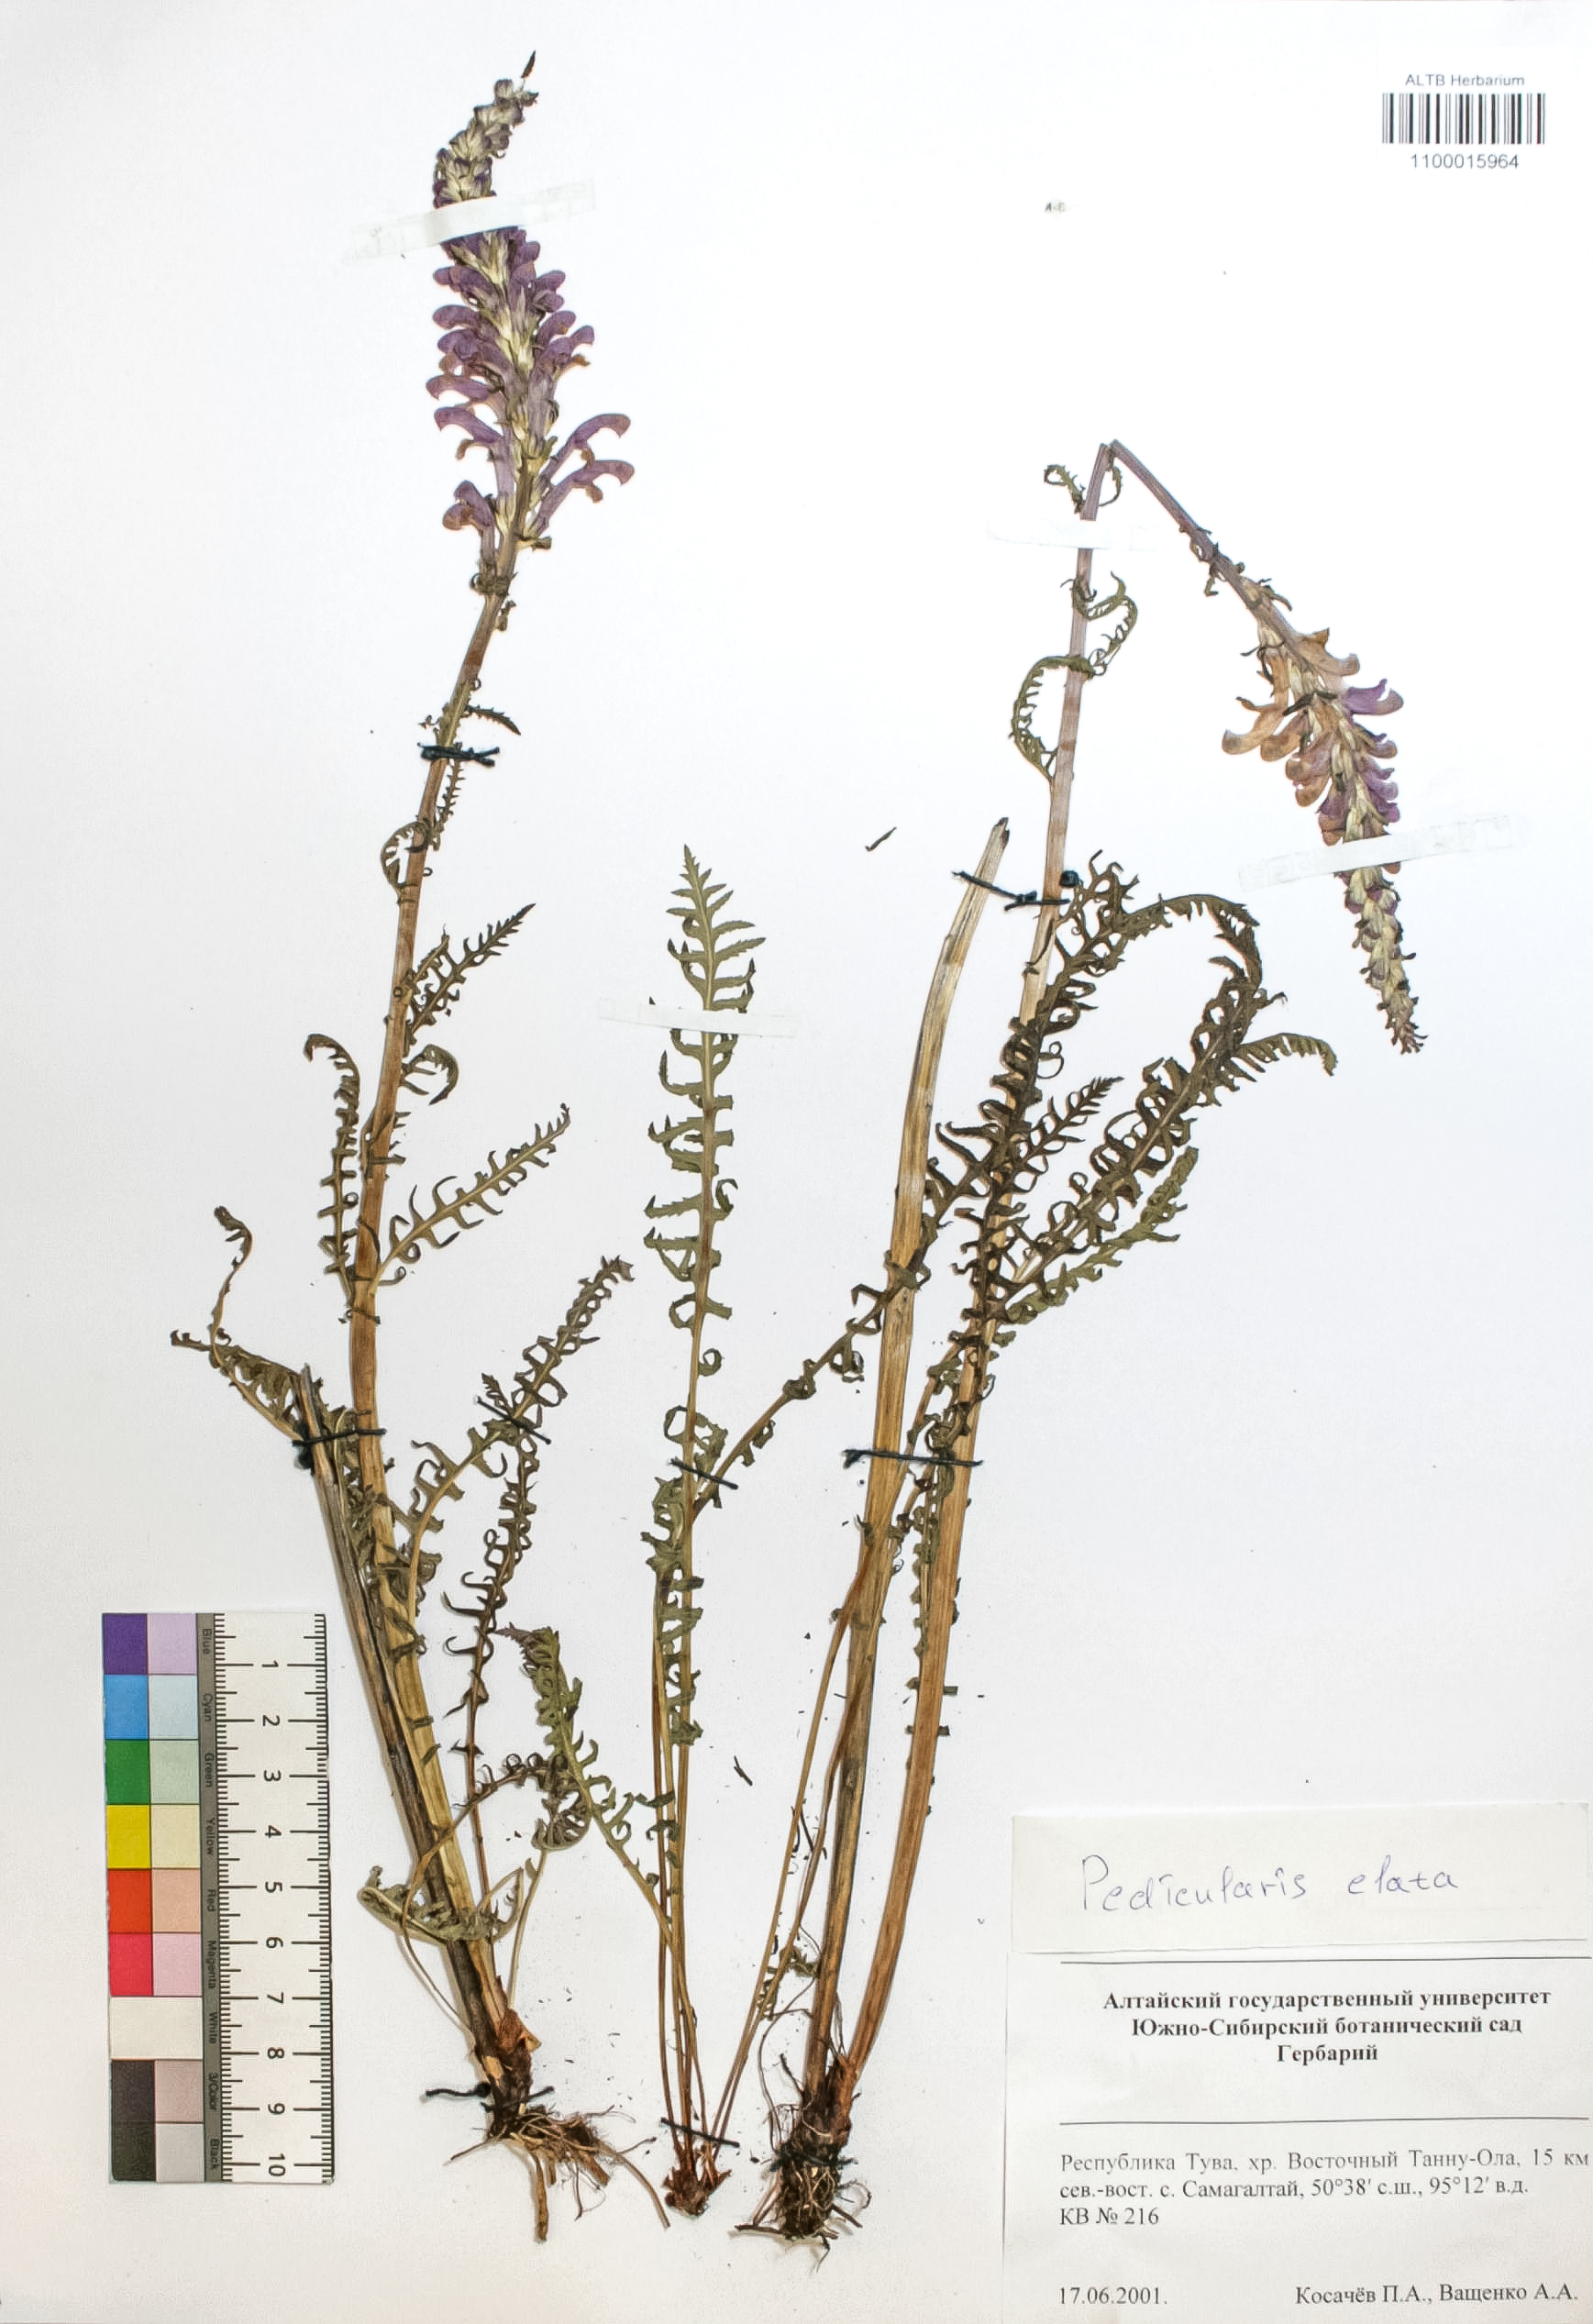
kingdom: Plantae
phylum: Tracheophyta
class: Magnoliopsida
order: Lamiales
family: Orobanchaceae
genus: Pedicularis
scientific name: Pedicularis elata
